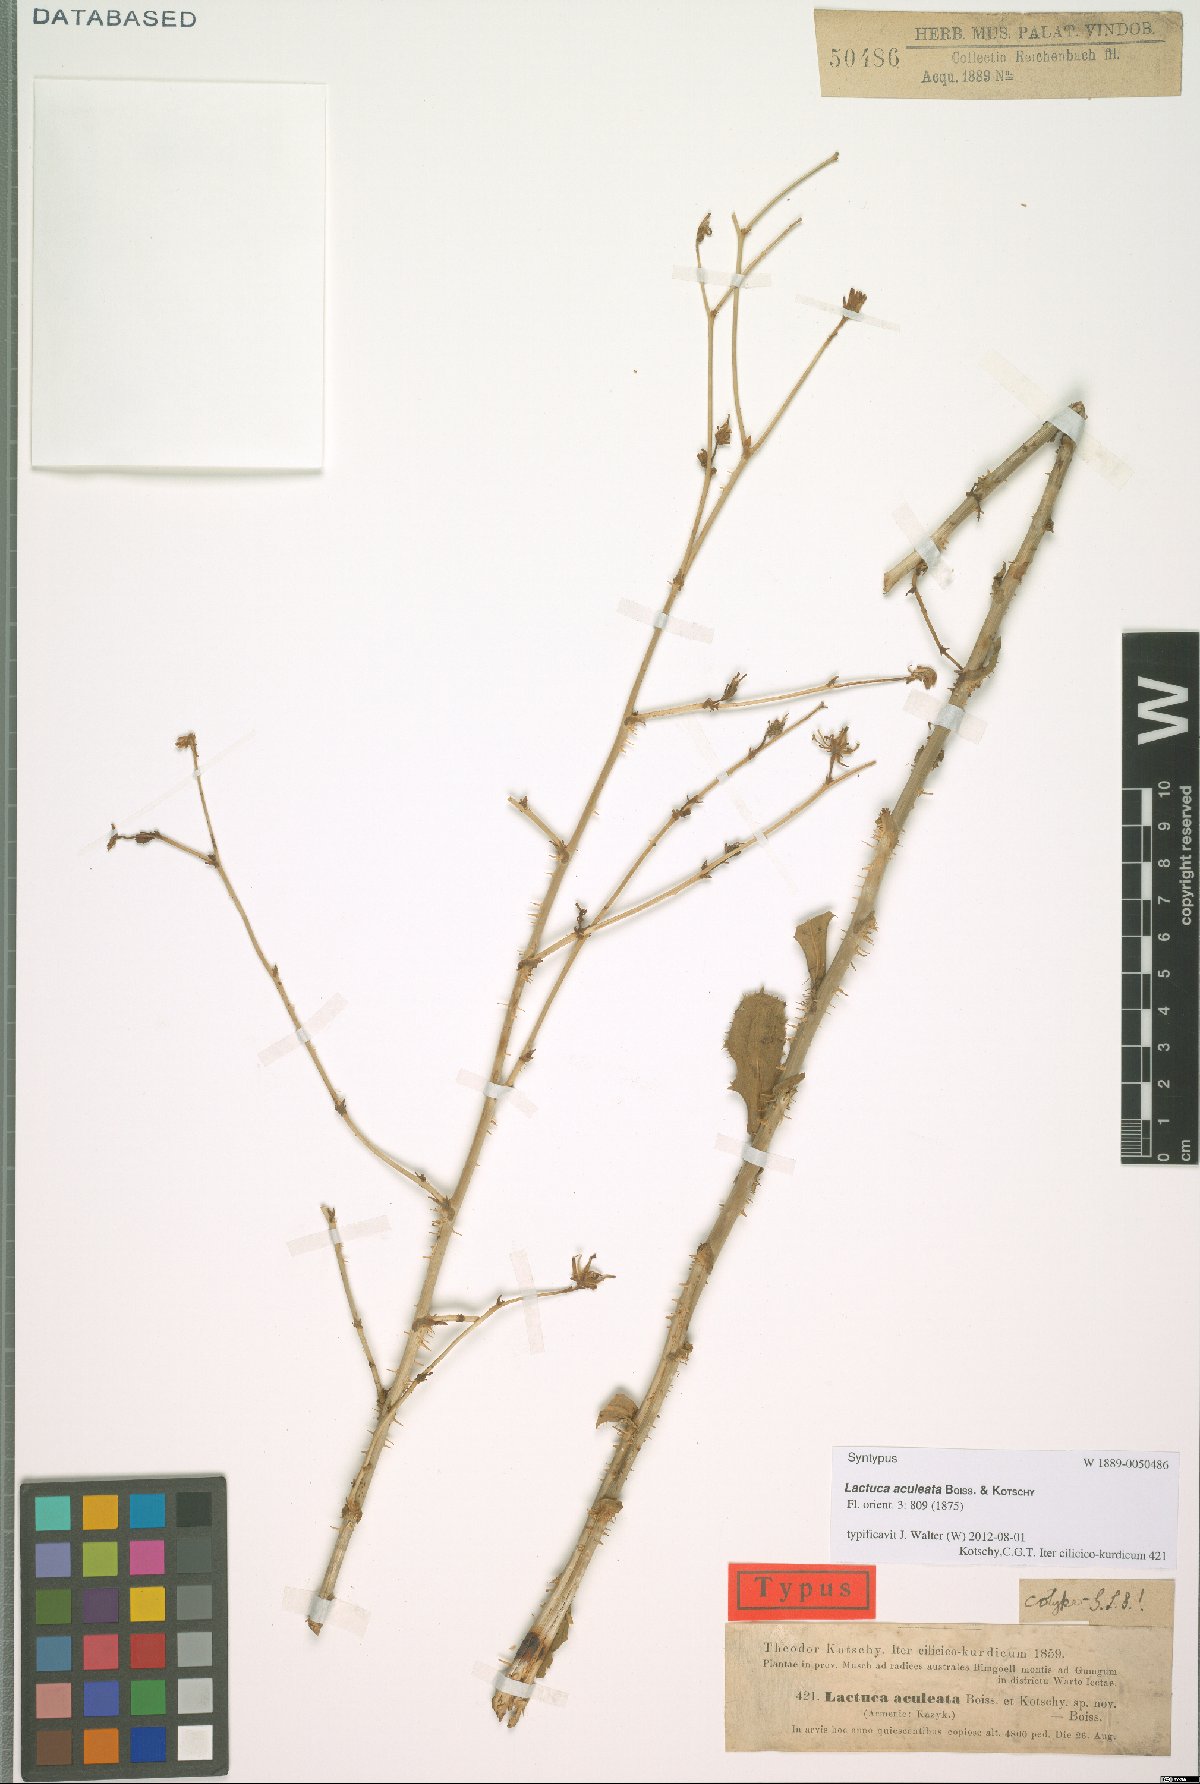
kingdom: Plantae
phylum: Tracheophyta
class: Magnoliopsida
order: Asterales
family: Asteraceae
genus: Lactuca
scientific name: Lactuca aculeata
